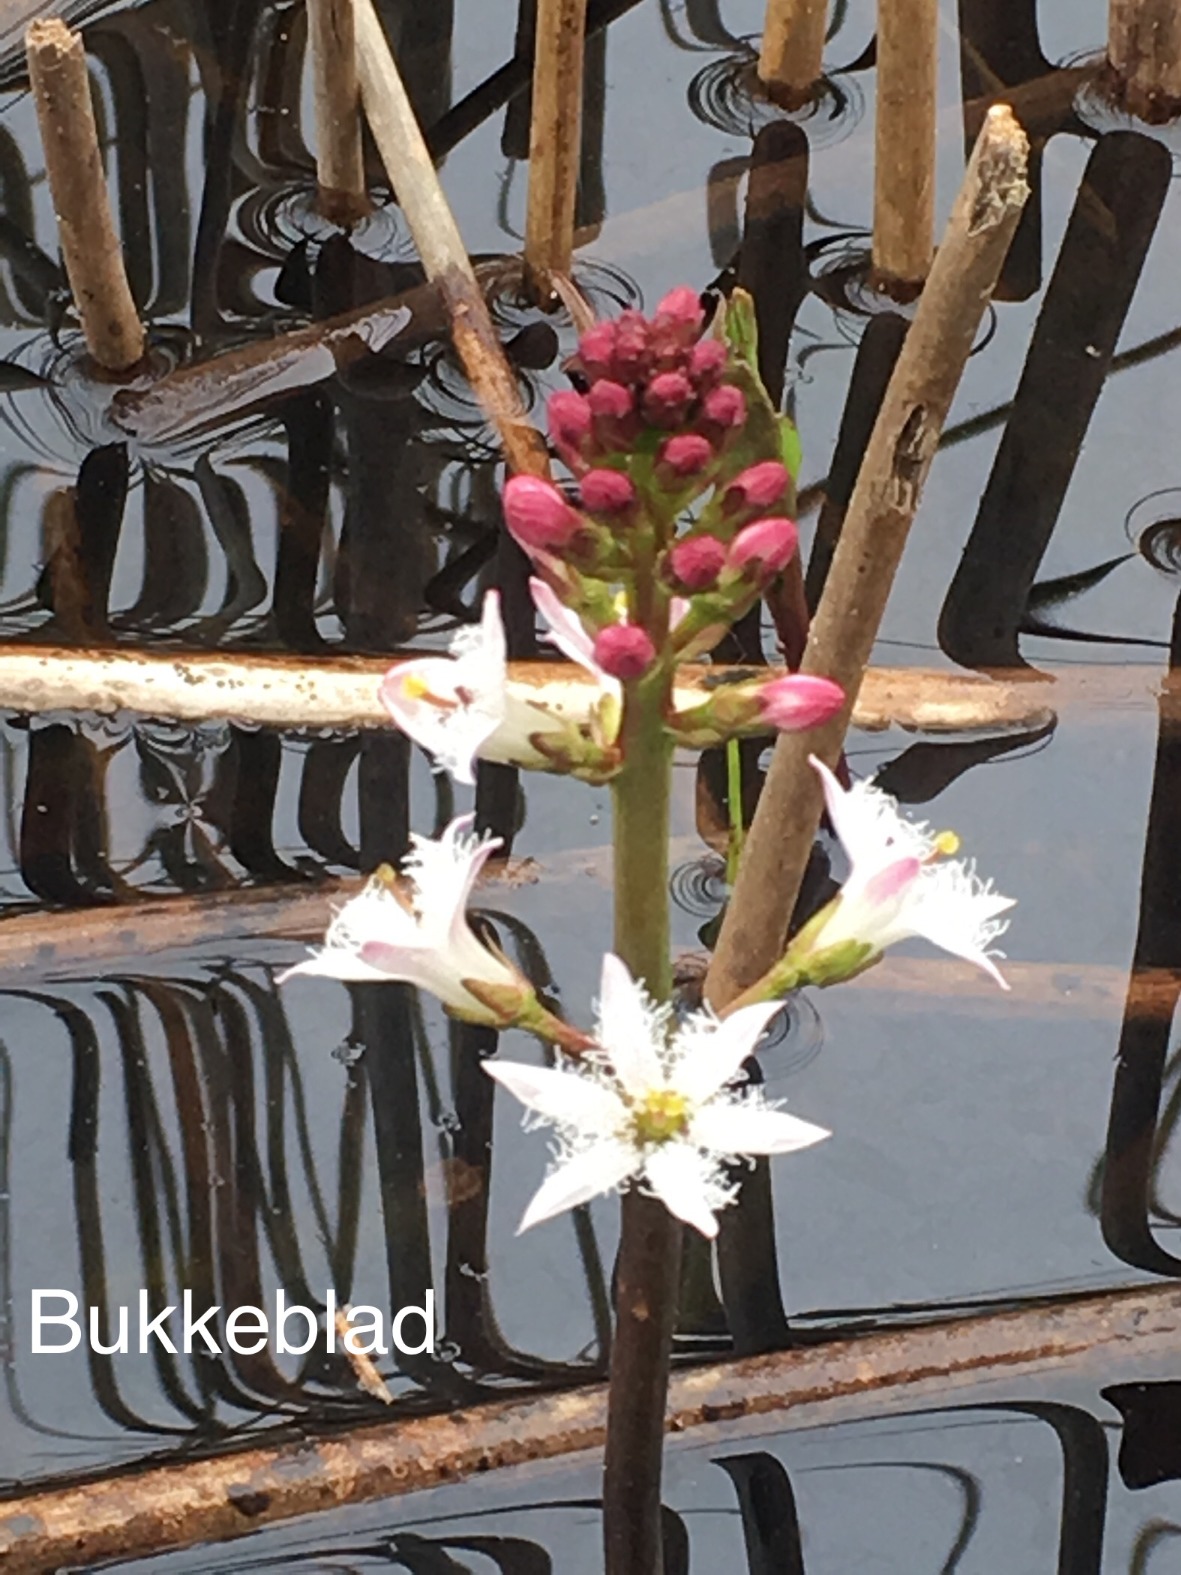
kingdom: Plantae
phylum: Tracheophyta
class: Magnoliopsida
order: Asterales
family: Menyanthaceae
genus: Menyanthes
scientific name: Menyanthes trifoliata
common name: Bukkeblad
